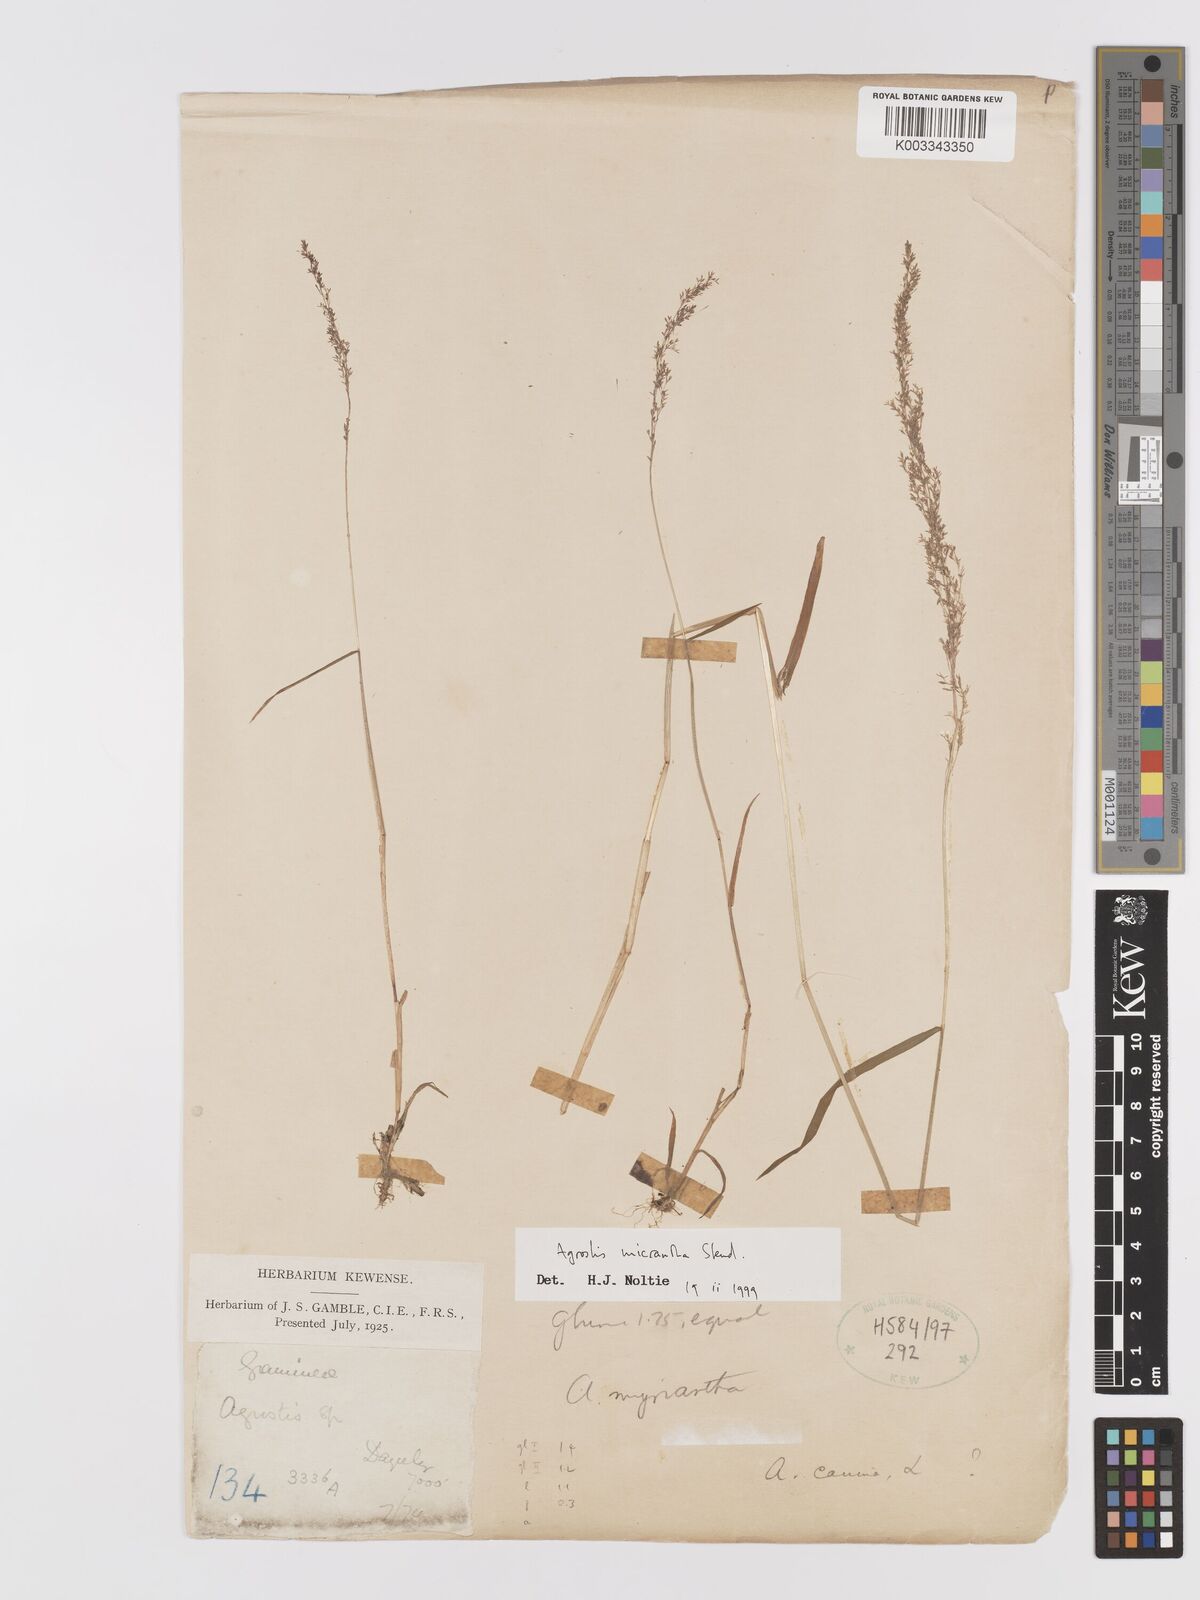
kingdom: Plantae
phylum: Tracheophyta
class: Liliopsida
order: Poales
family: Poaceae
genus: Agrostis
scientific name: Agrostis micrantha
